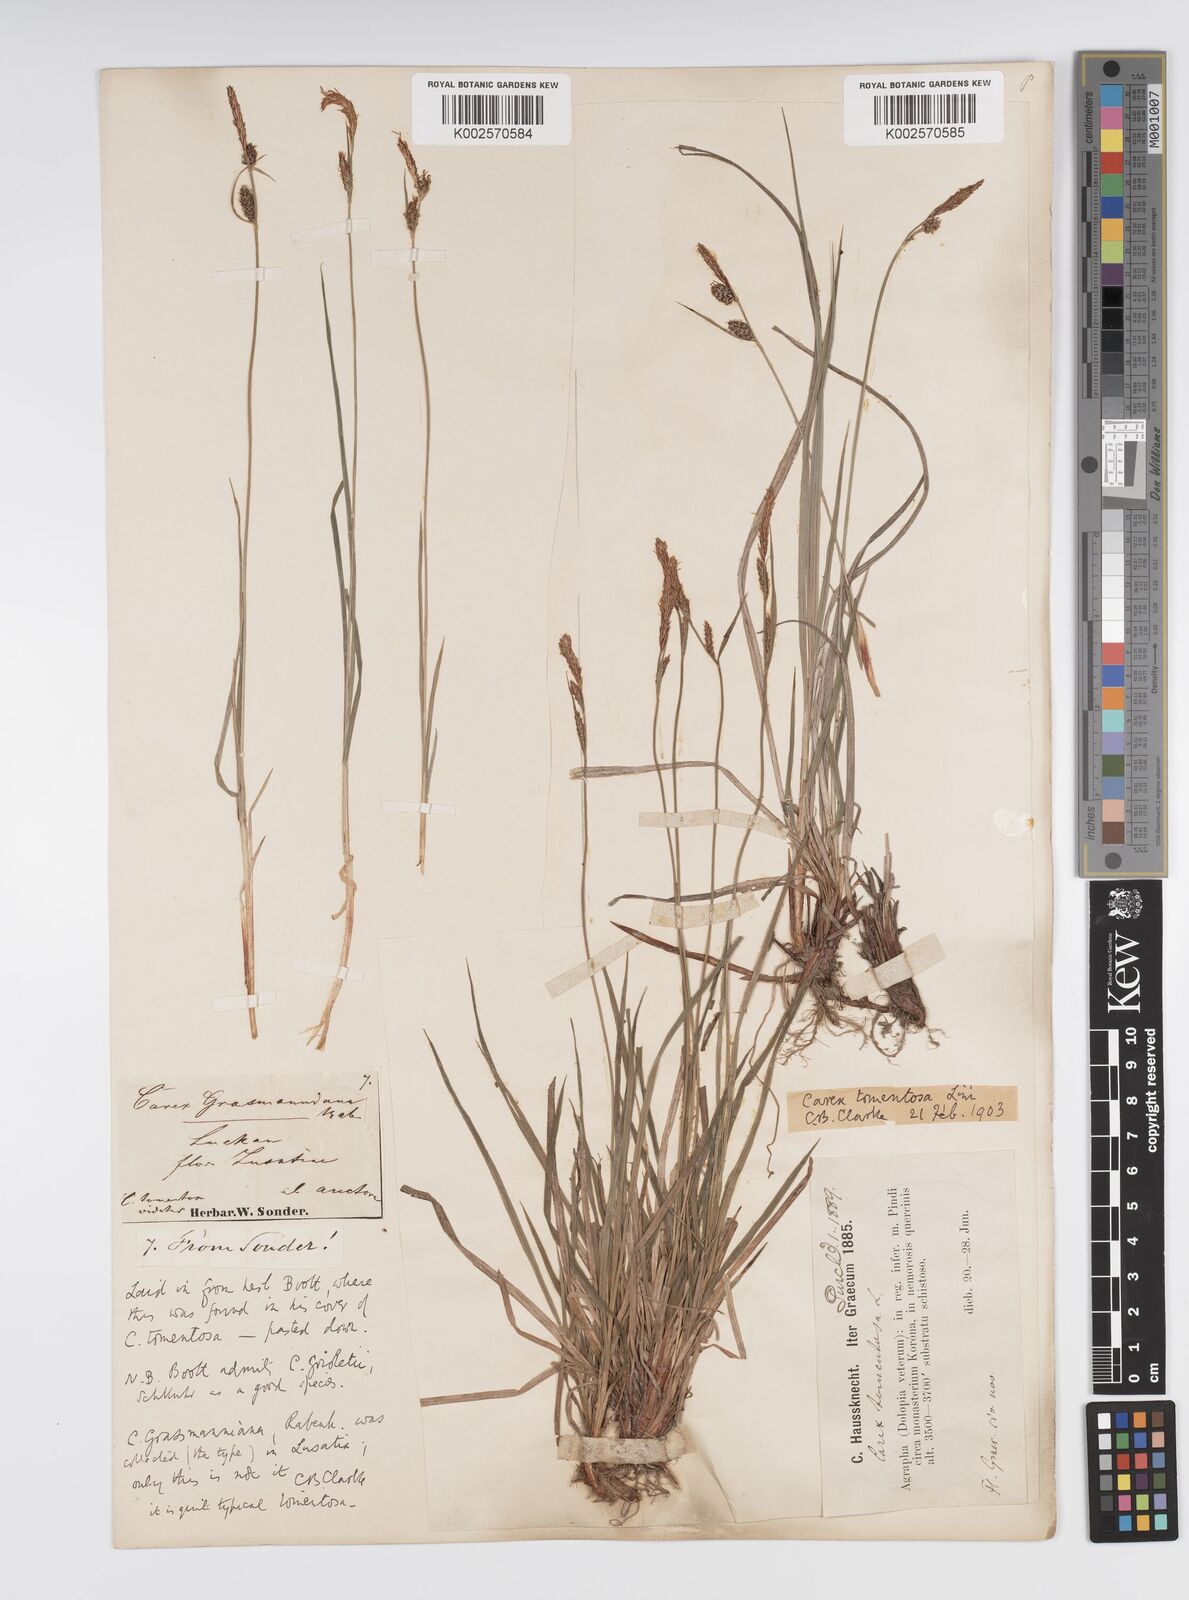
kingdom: Plantae
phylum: Tracheophyta
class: Liliopsida
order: Poales
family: Cyperaceae
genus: Carex
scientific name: Carex montana
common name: Soft-leaved sedge
